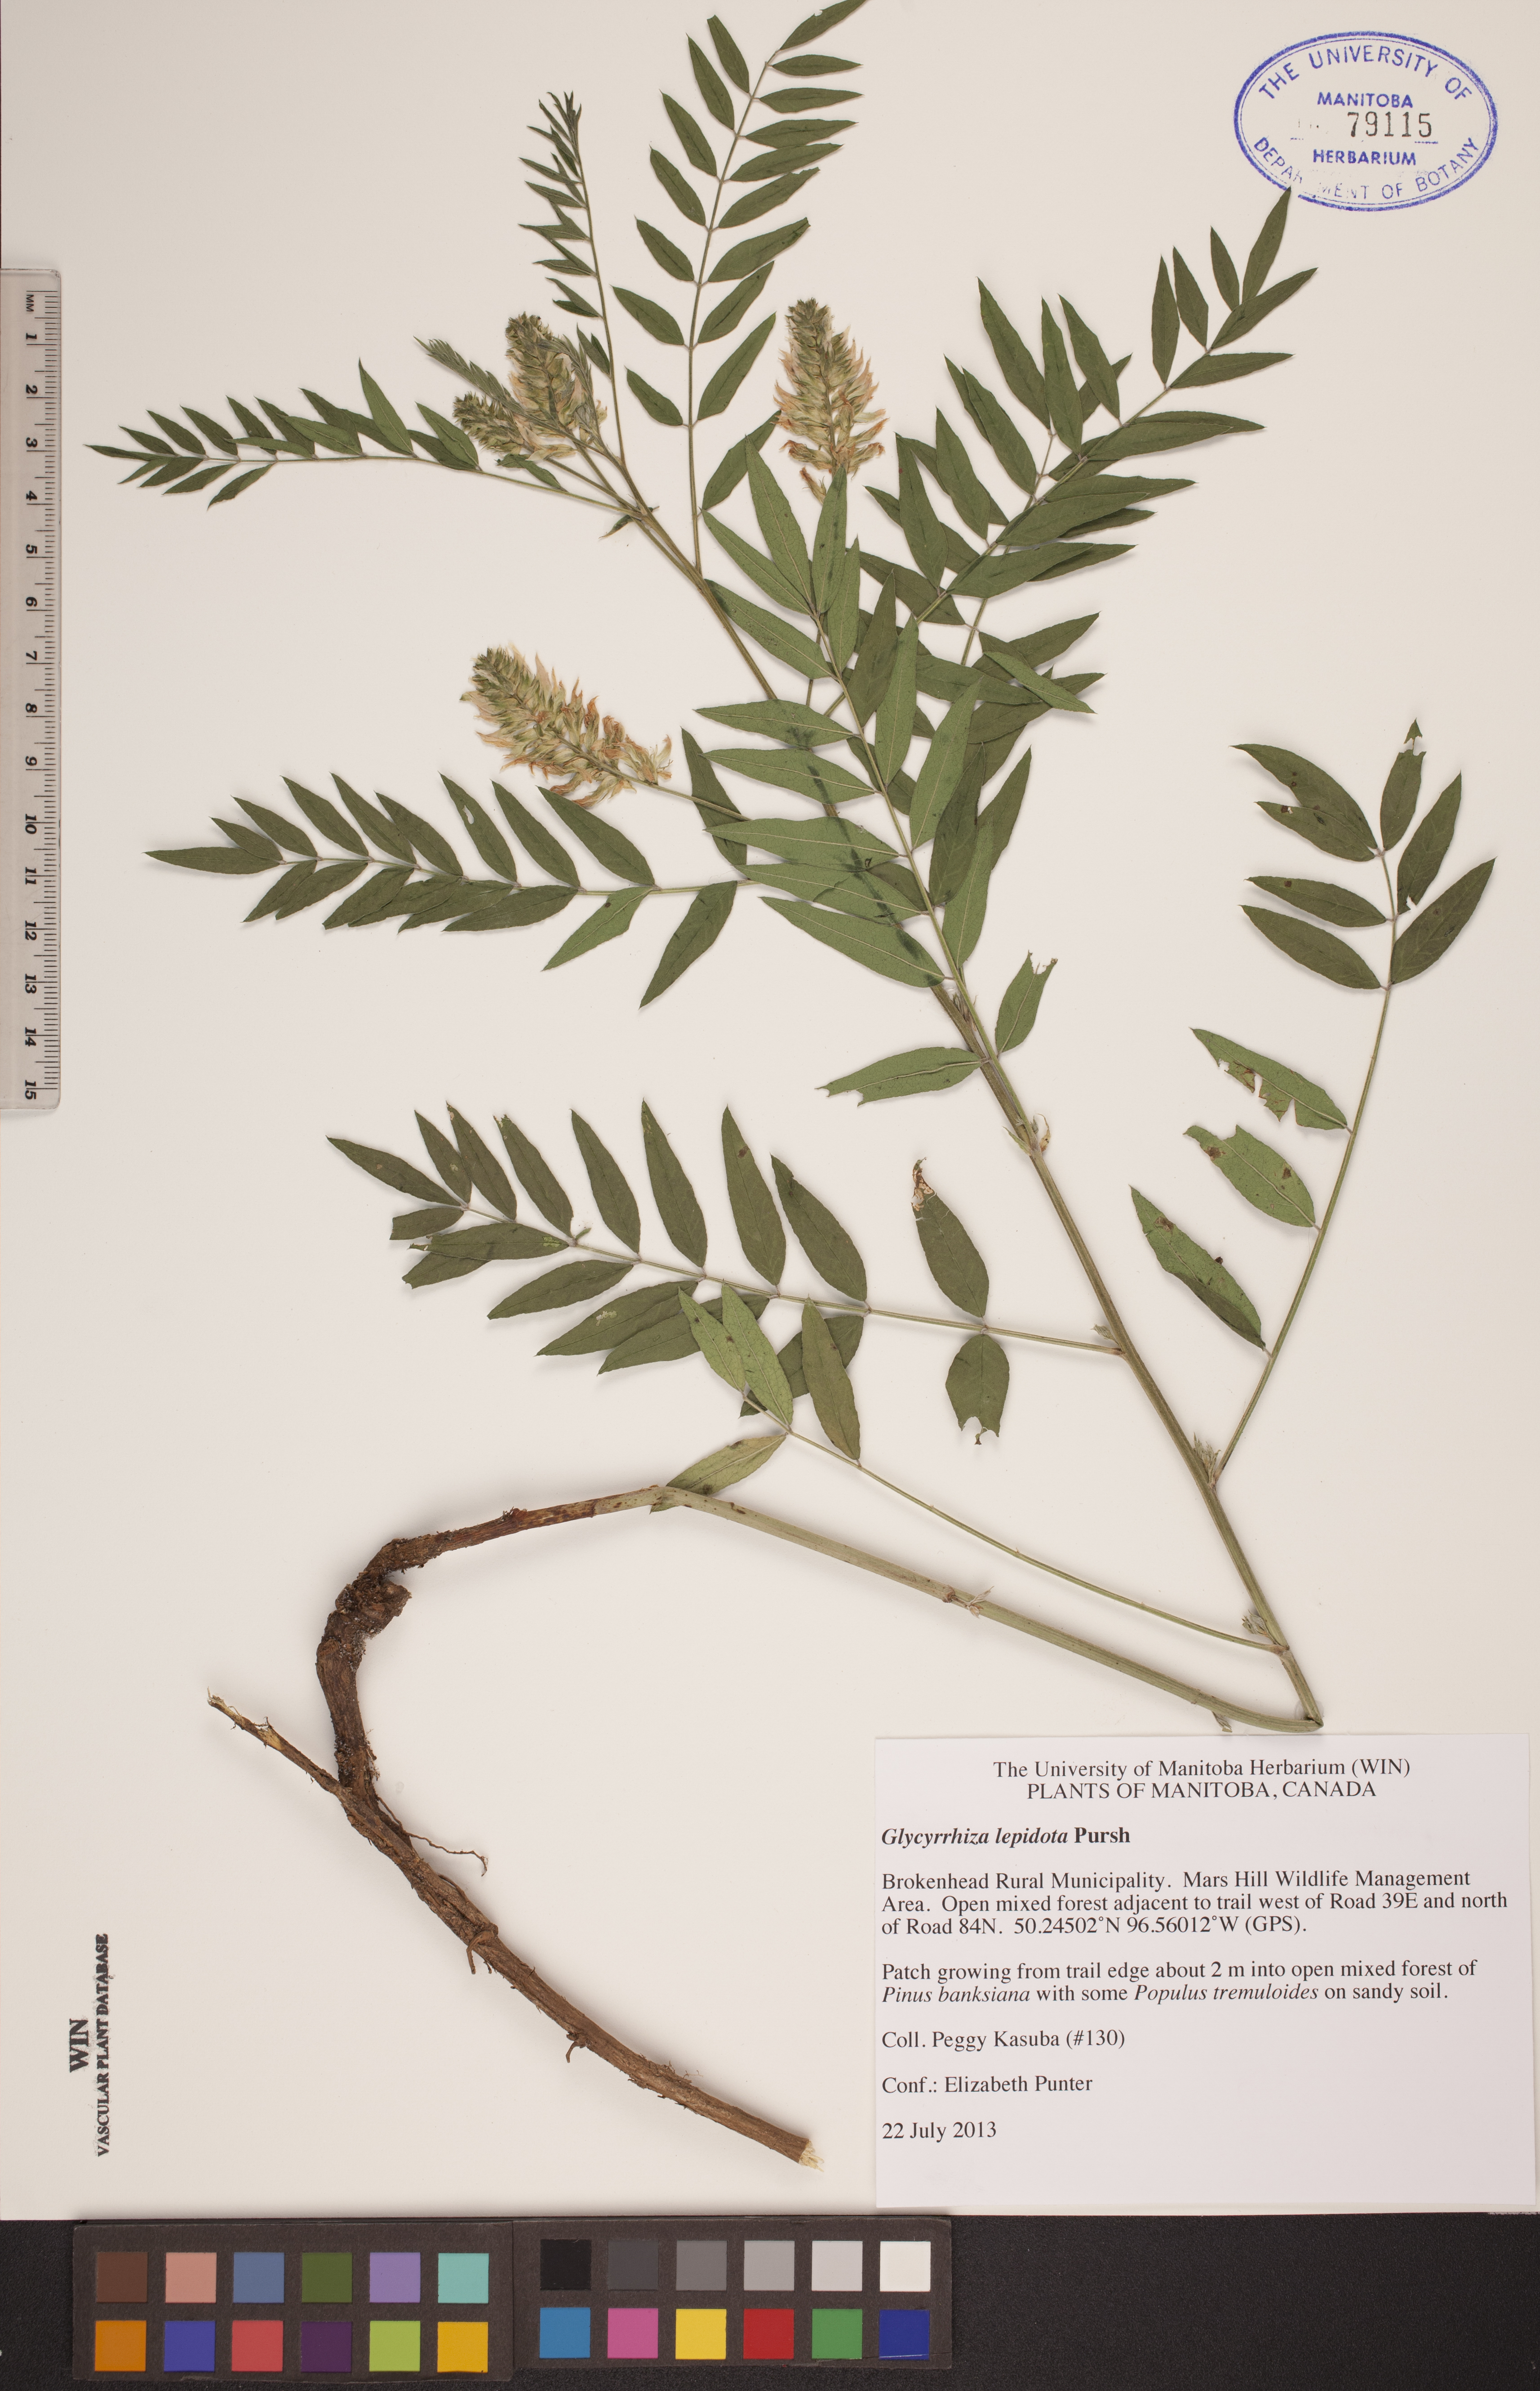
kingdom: Plantae
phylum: Tracheophyta
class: Magnoliopsida
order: Fabales
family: Fabaceae
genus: Glycyrrhiza
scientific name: Glycyrrhiza lepidota
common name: American liquorice
